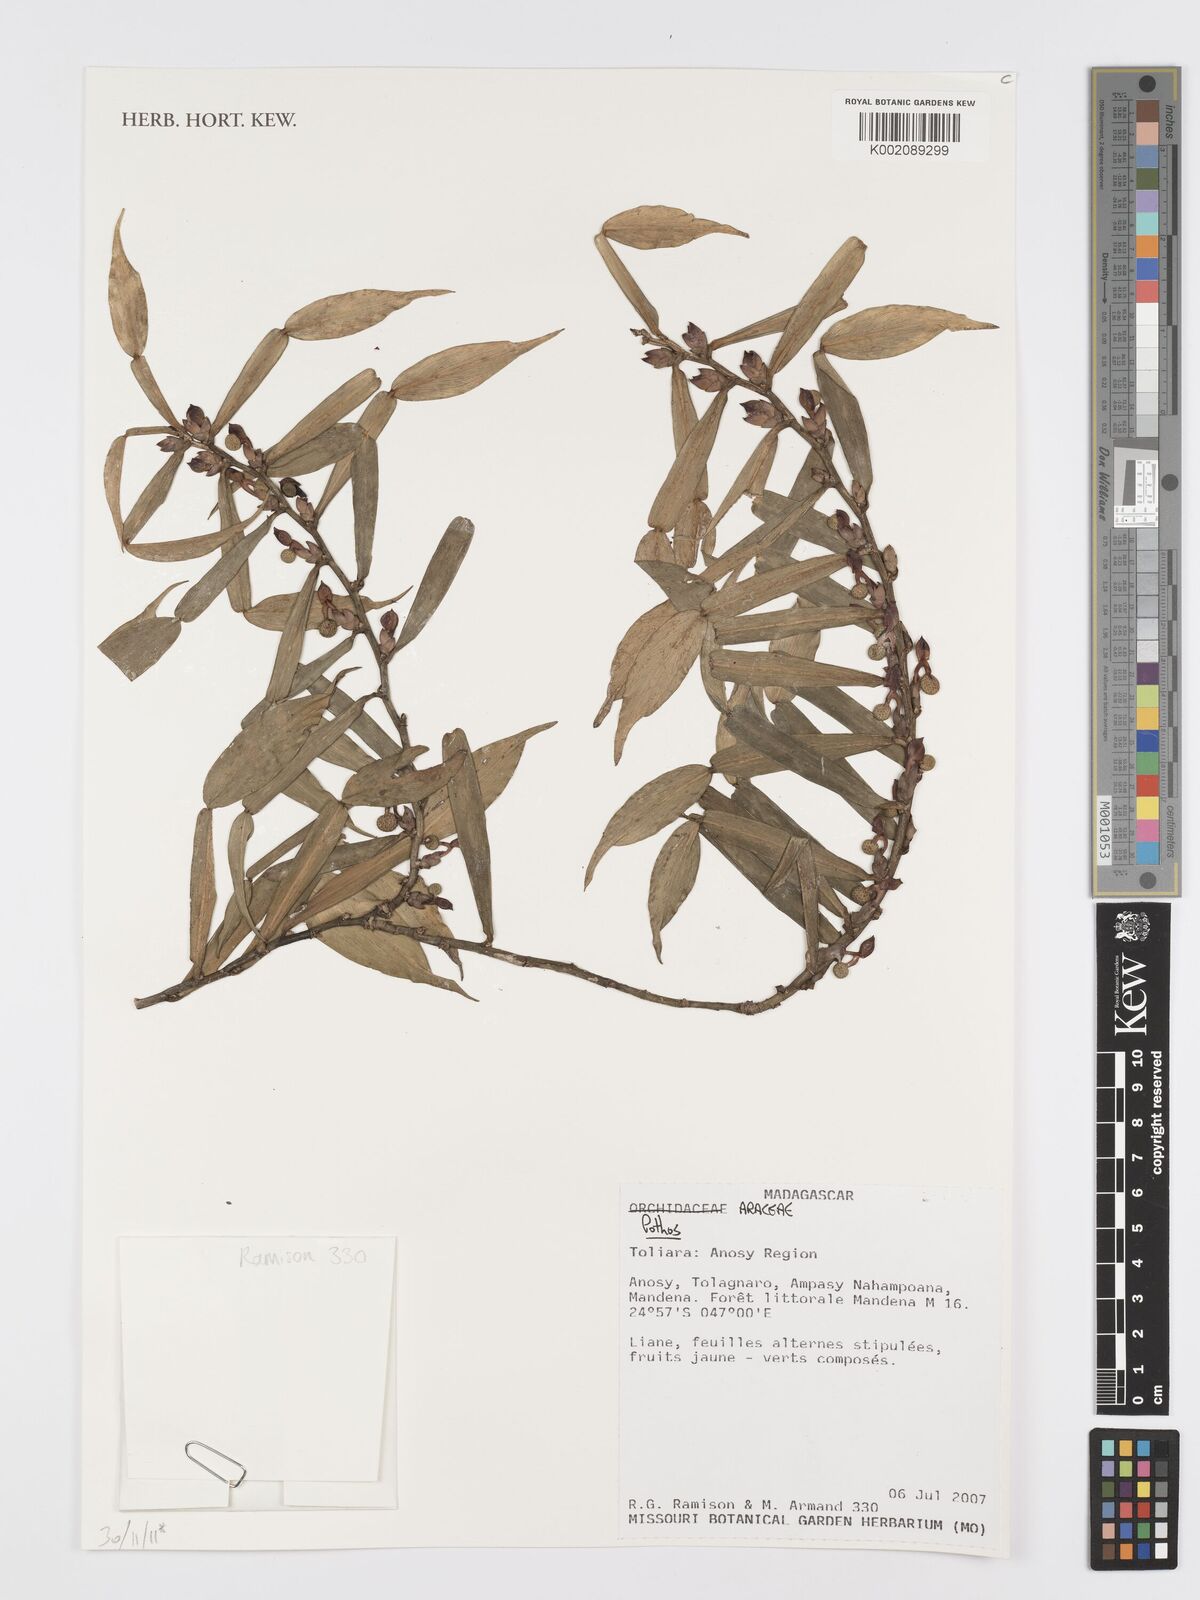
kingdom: Plantae
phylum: Tracheophyta
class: Liliopsida
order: Alismatales
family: Araceae
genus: Pothos
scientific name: Pothos
